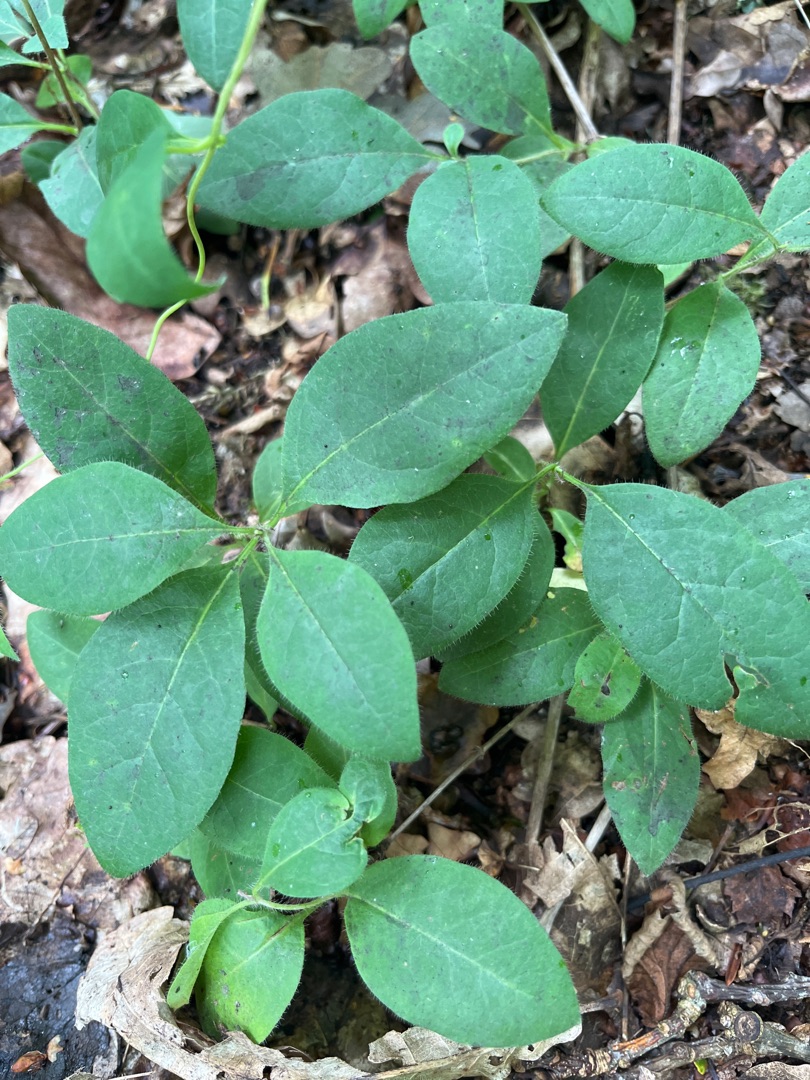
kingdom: Plantae
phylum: Tracheophyta
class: Magnoliopsida
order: Dipsacales
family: Caprifoliaceae
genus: Lonicera
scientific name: Lonicera periclymenum
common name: Almindelig gedeblad
